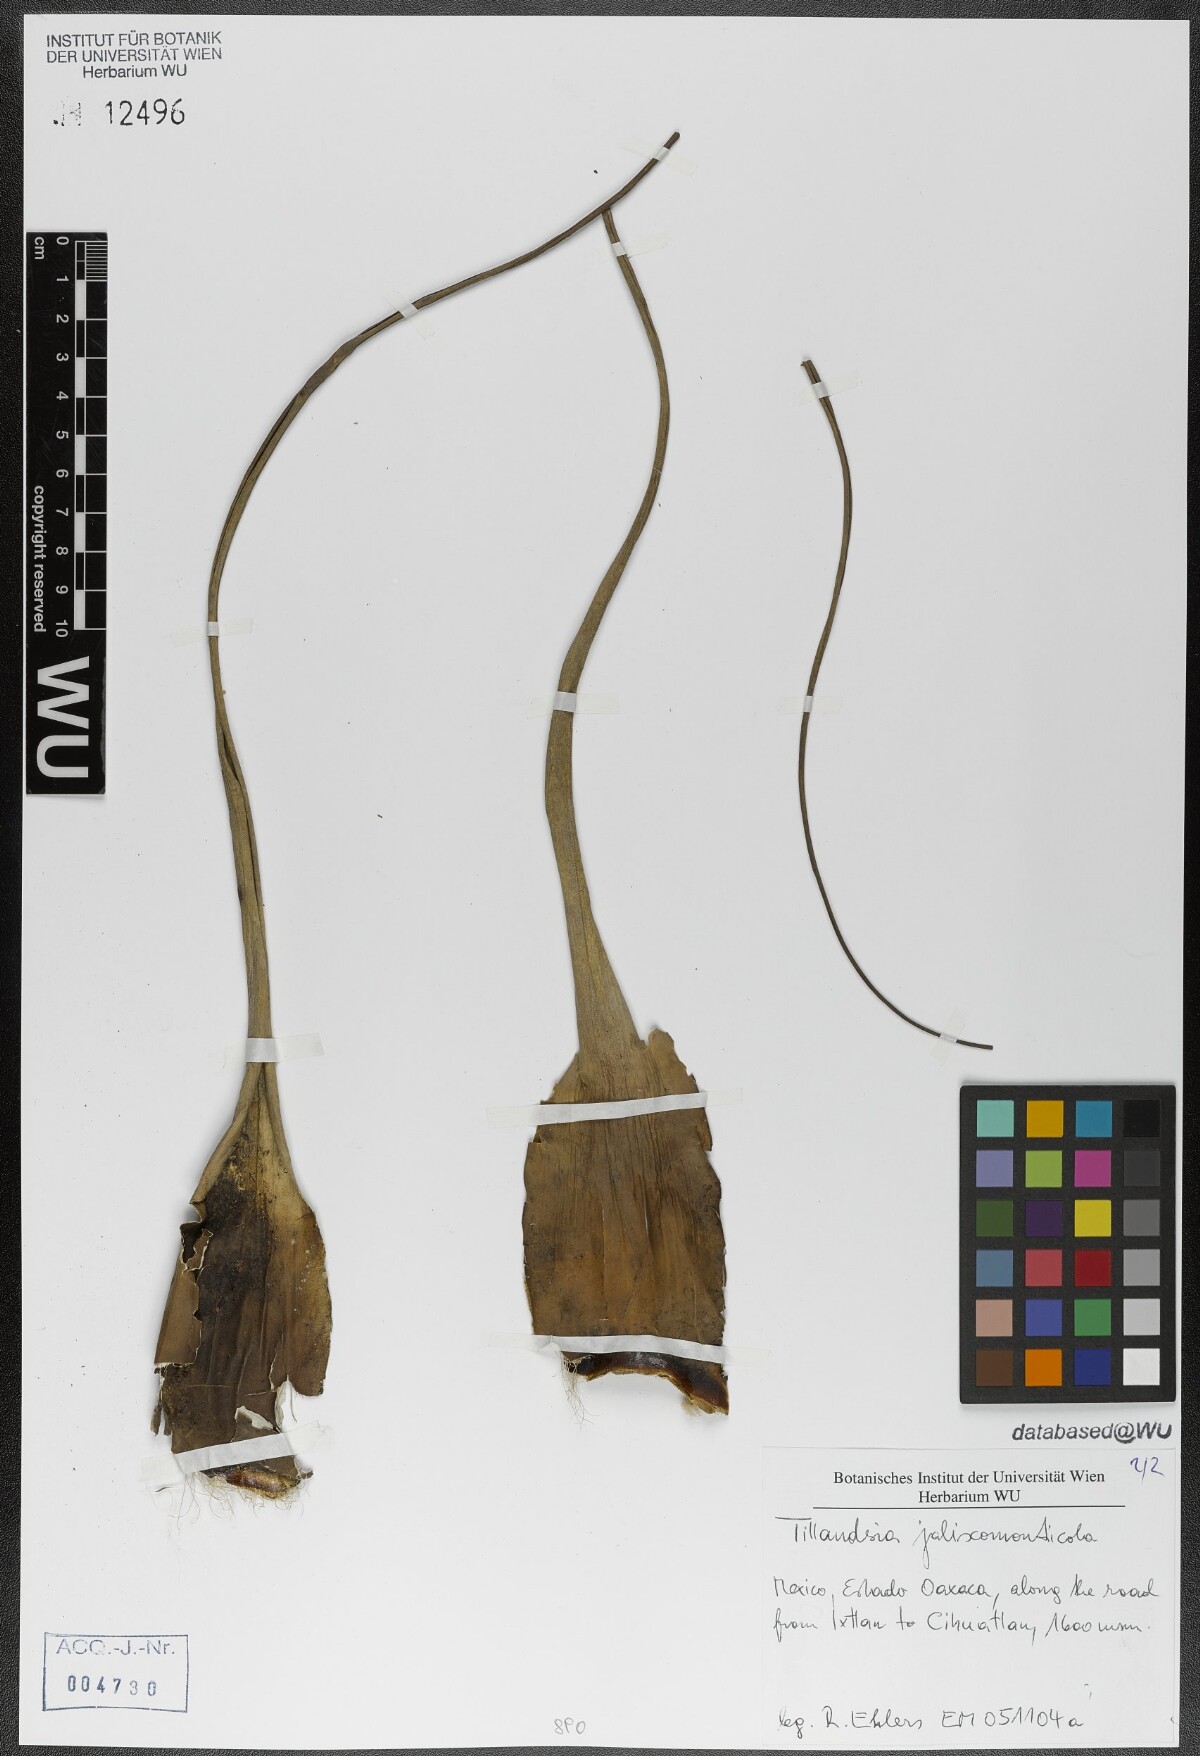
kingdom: Plantae
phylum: Tracheophyta
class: Liliopsida
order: Poales
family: Bromeliaceae
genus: Tillandsia
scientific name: Tillandsia compressa
